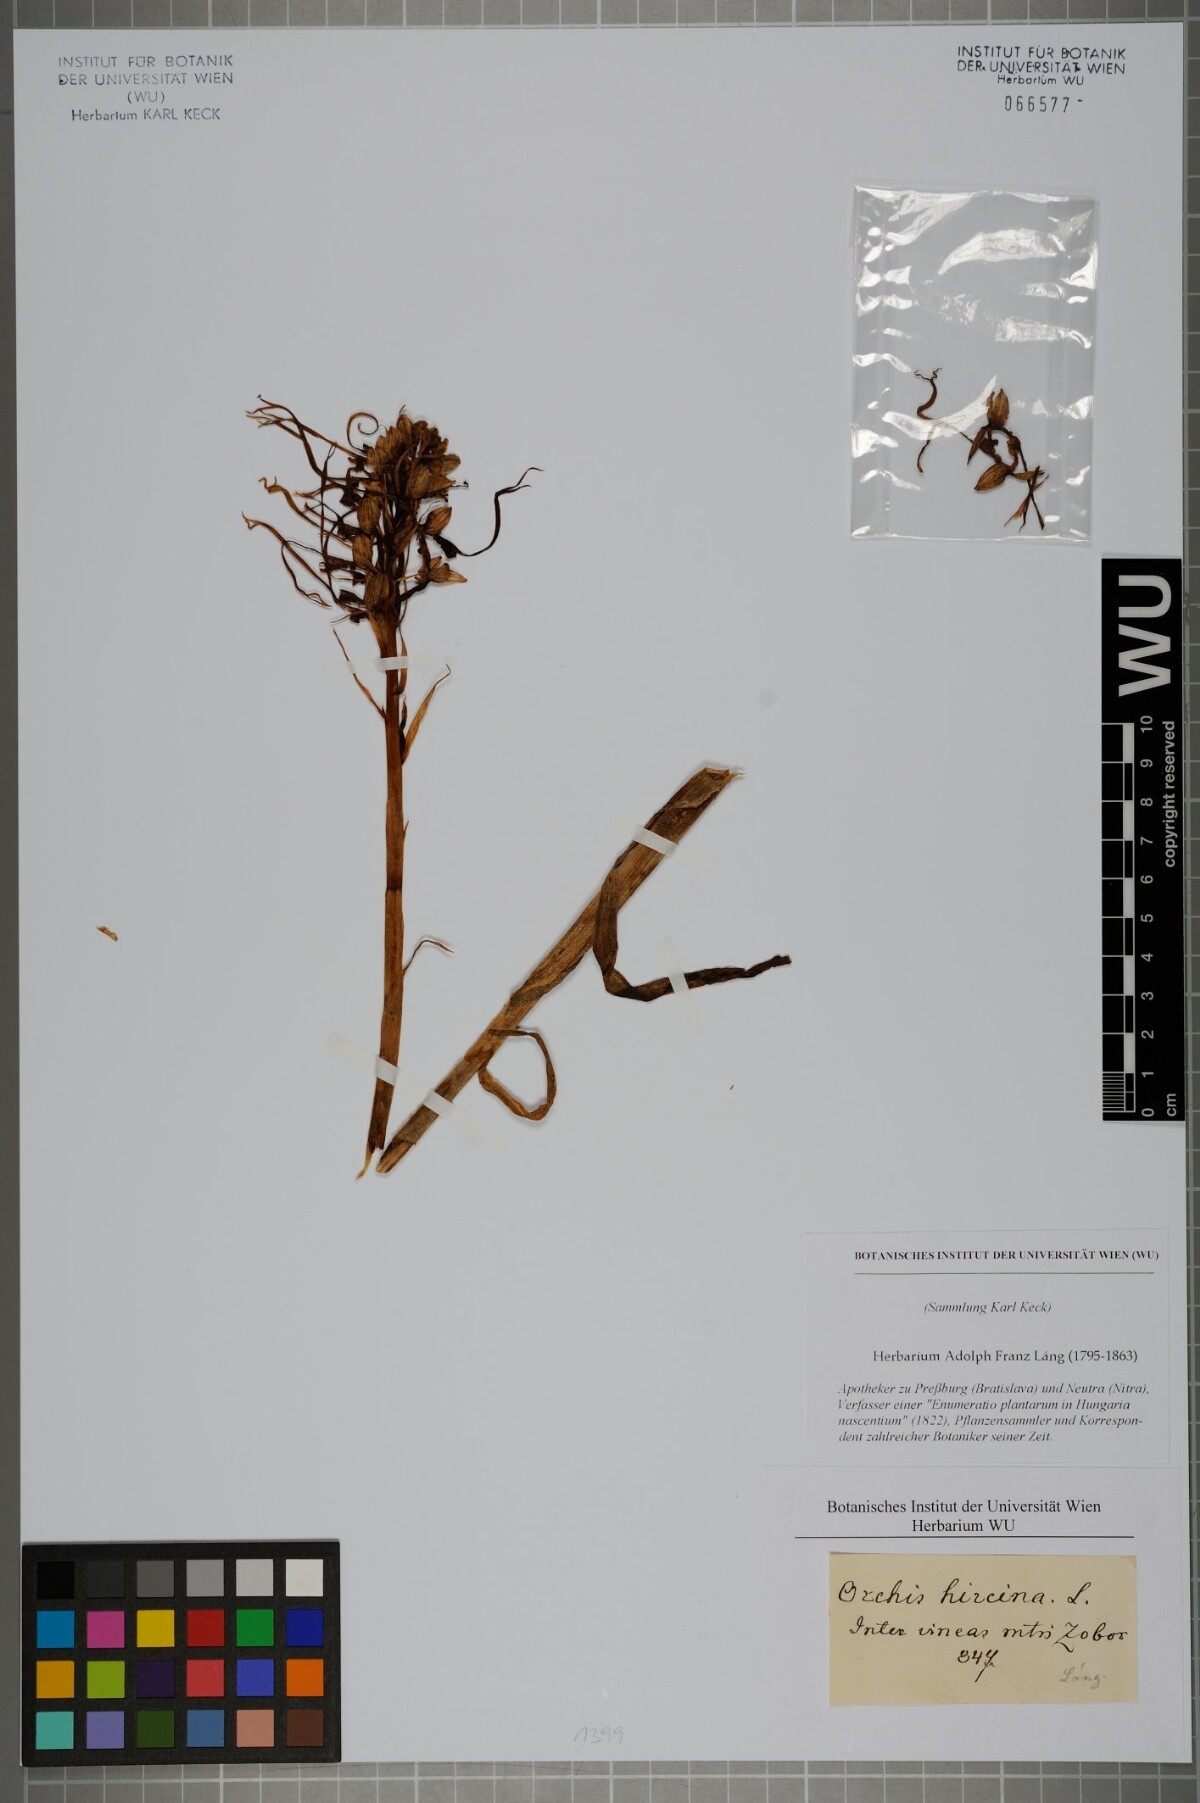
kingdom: Plantae
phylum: Tracheophyta
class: Liliopsida
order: Asparagales
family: Orchidaceae
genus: Himantoglossum
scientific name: Himantoglossum hircinum
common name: Lizard orchid
